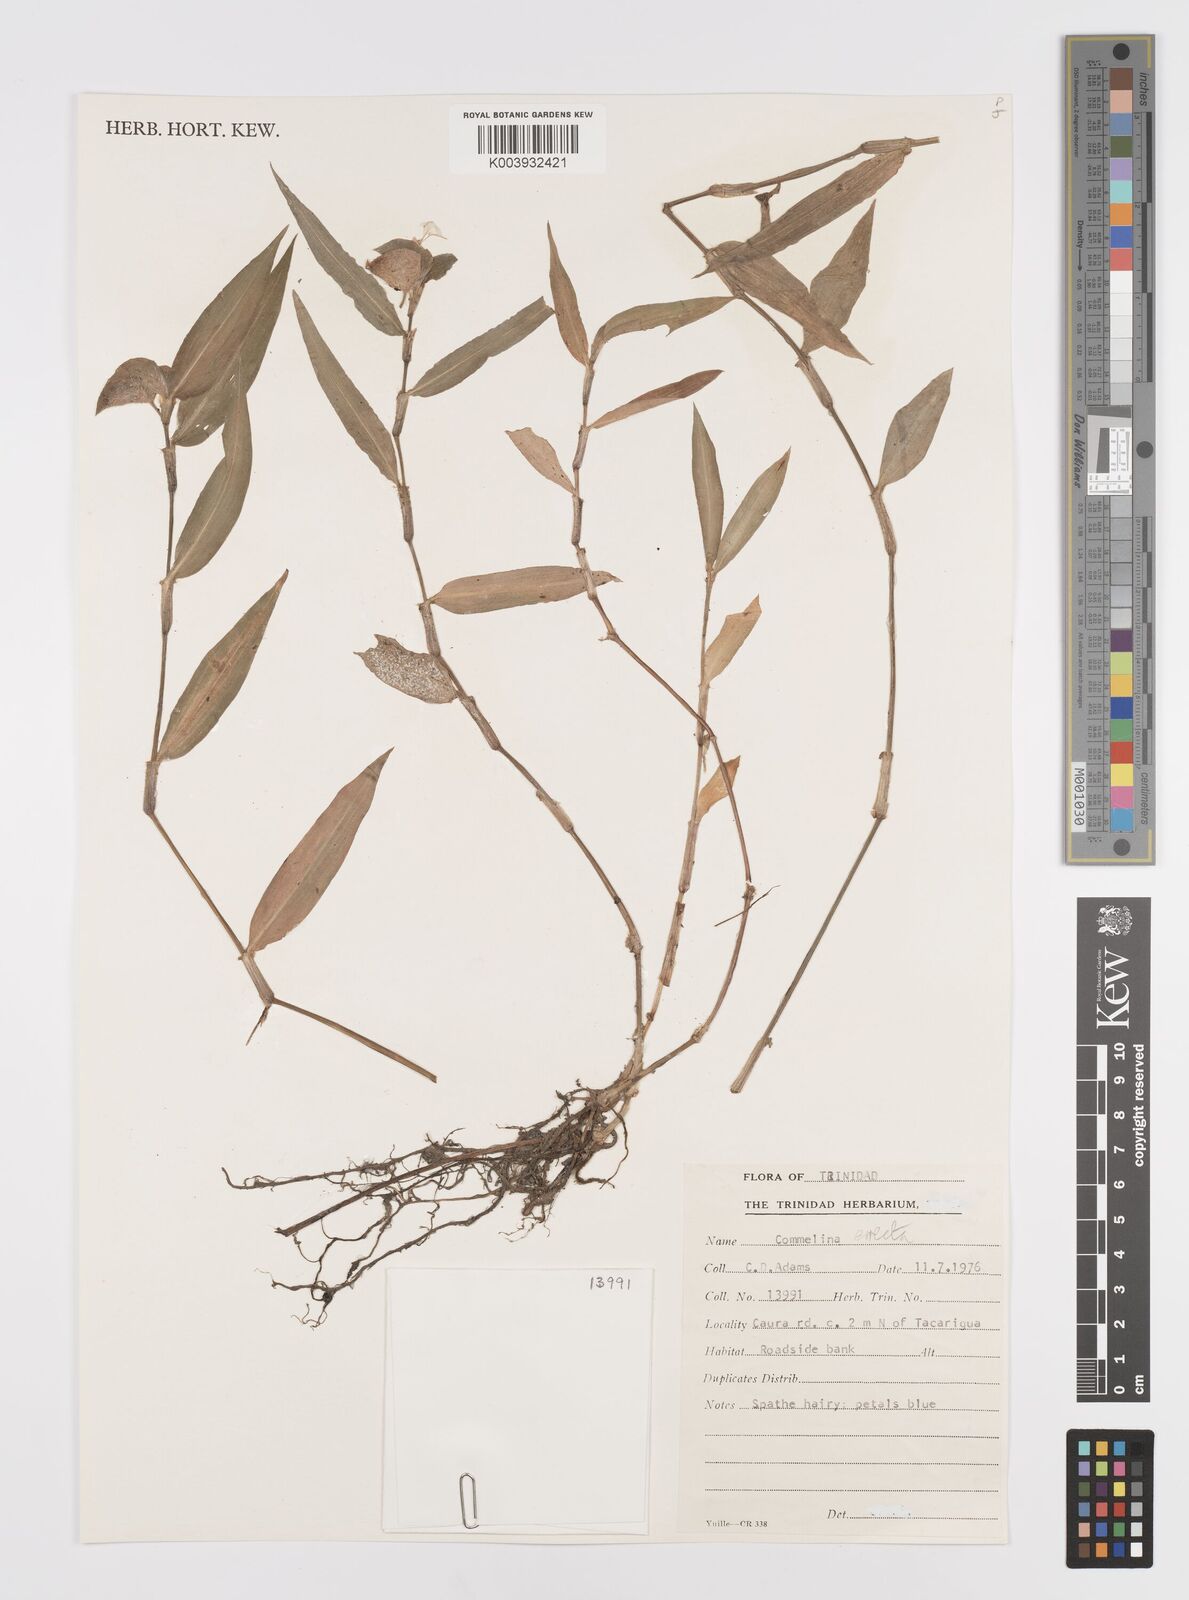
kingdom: Plantae
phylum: Tracheophyta
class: Liliopsida
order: Commelinales
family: Commelinaceae
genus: Commelina
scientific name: Commelina erecta
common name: Blousel blommetjie
